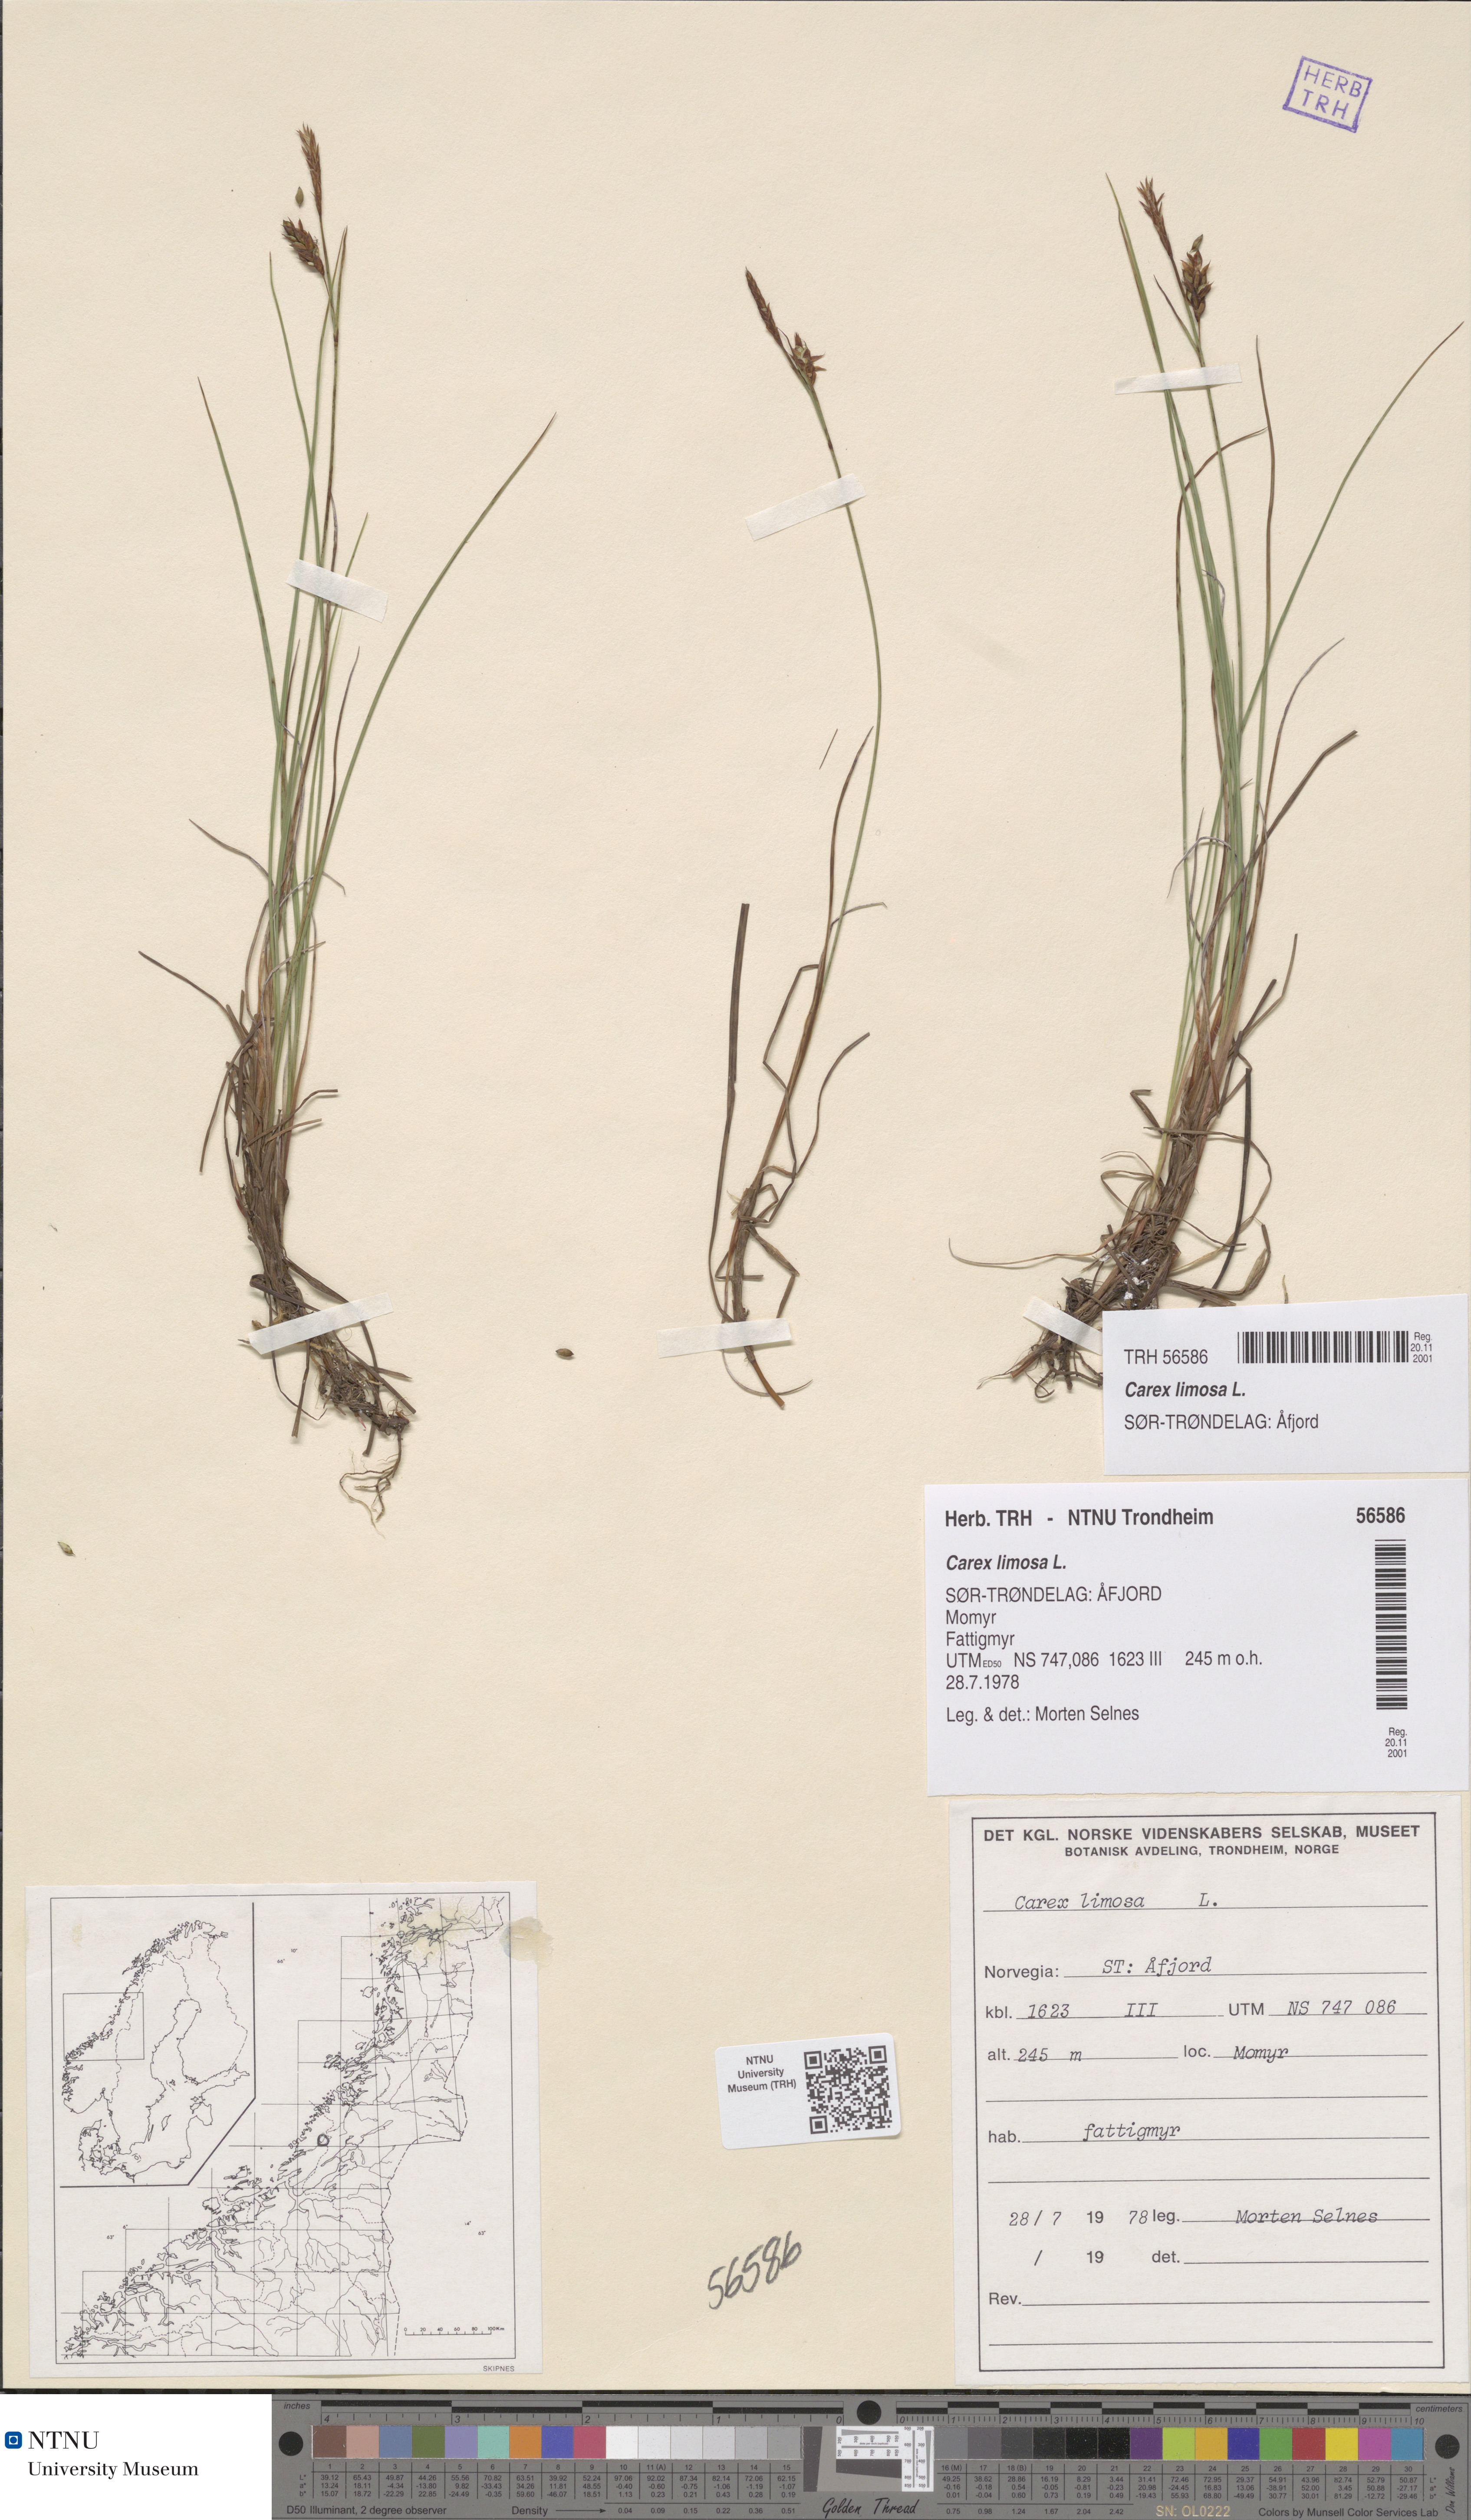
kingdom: Plantae
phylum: Tracheophyta
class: Liliopsida
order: Poales
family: Cyperaceae
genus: Carex
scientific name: Carex limosa
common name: Bog sedge
